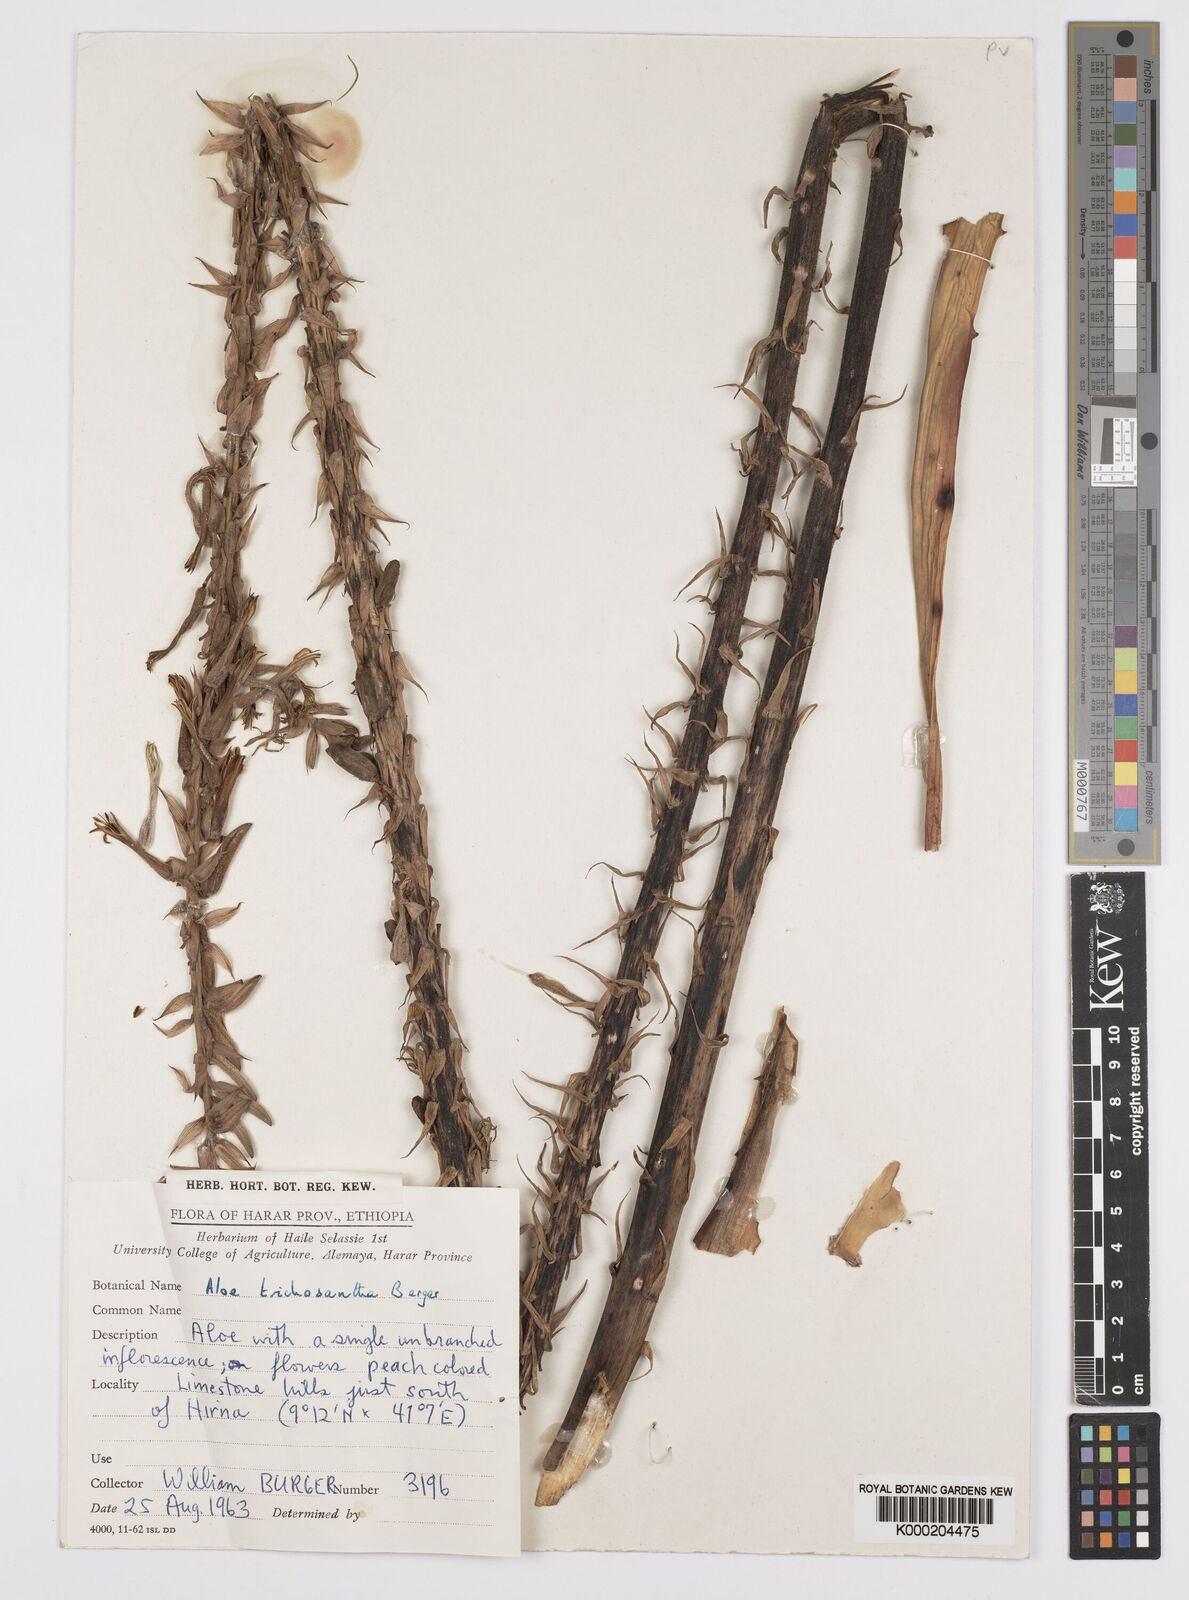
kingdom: Plantae
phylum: Tracheophyta
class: Liliopsida
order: Asparagales
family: Asphodelaceae
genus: Aloe
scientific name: Aloe trichosantha
